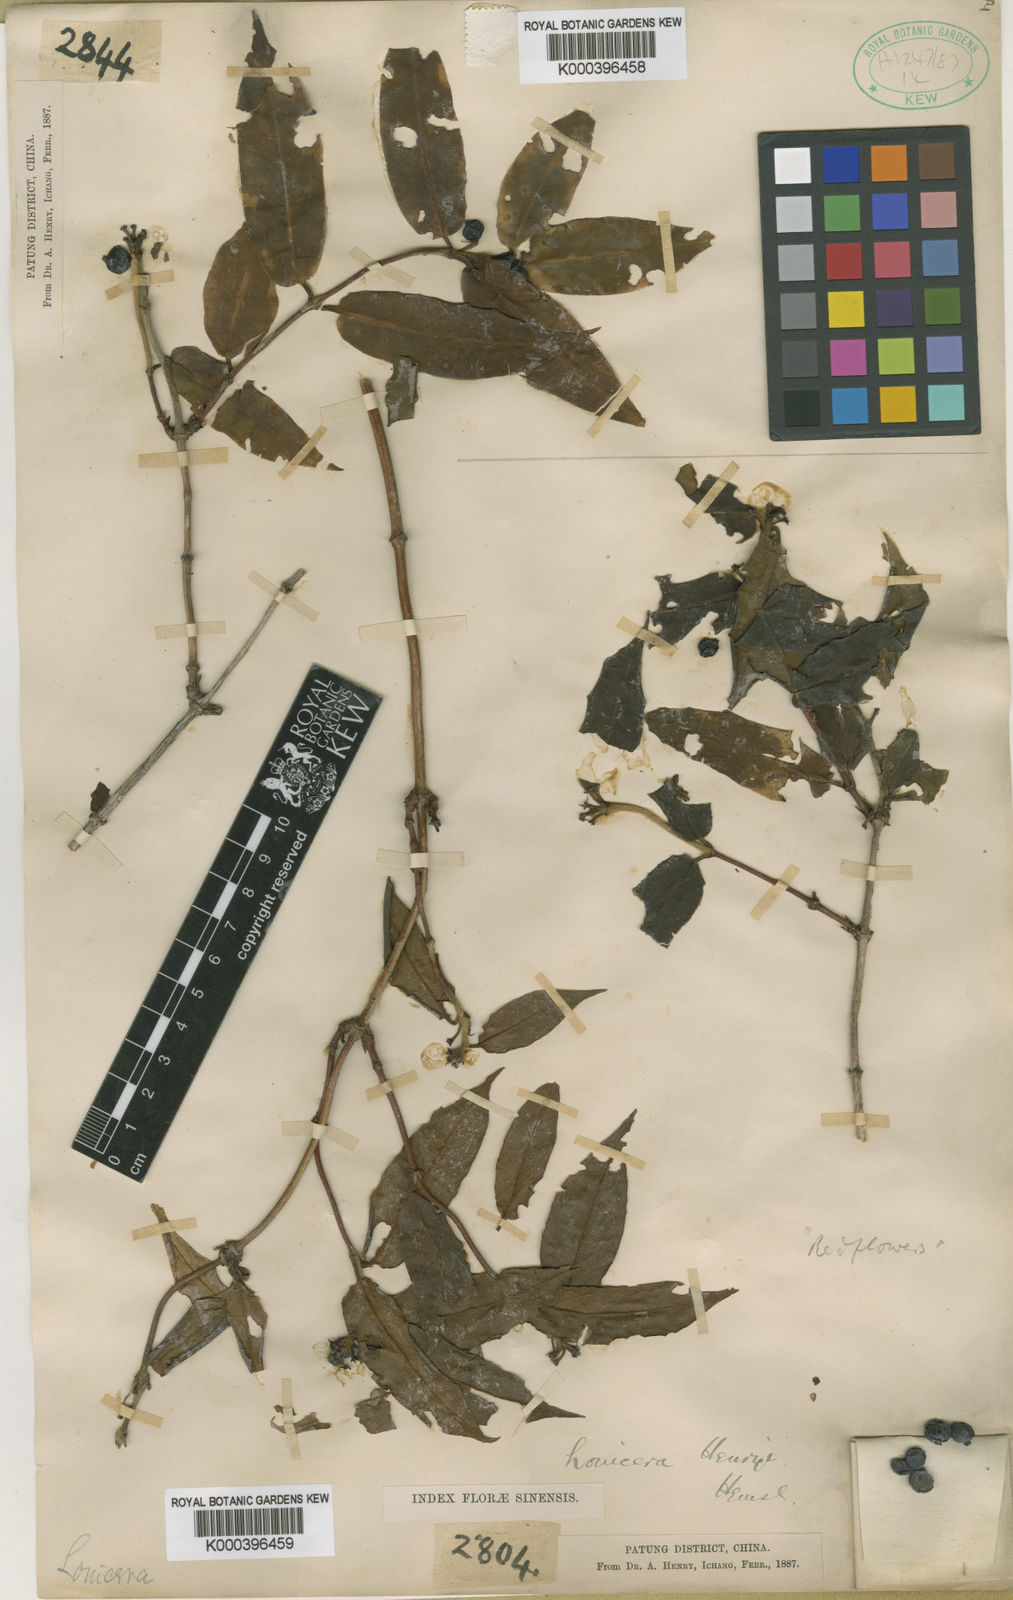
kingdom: Plantae
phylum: Tracheophyta
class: Magnoliopsida
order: Dipsacales
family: Caprifoliaceae
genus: Lonicera
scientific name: Lonicera acuminata
